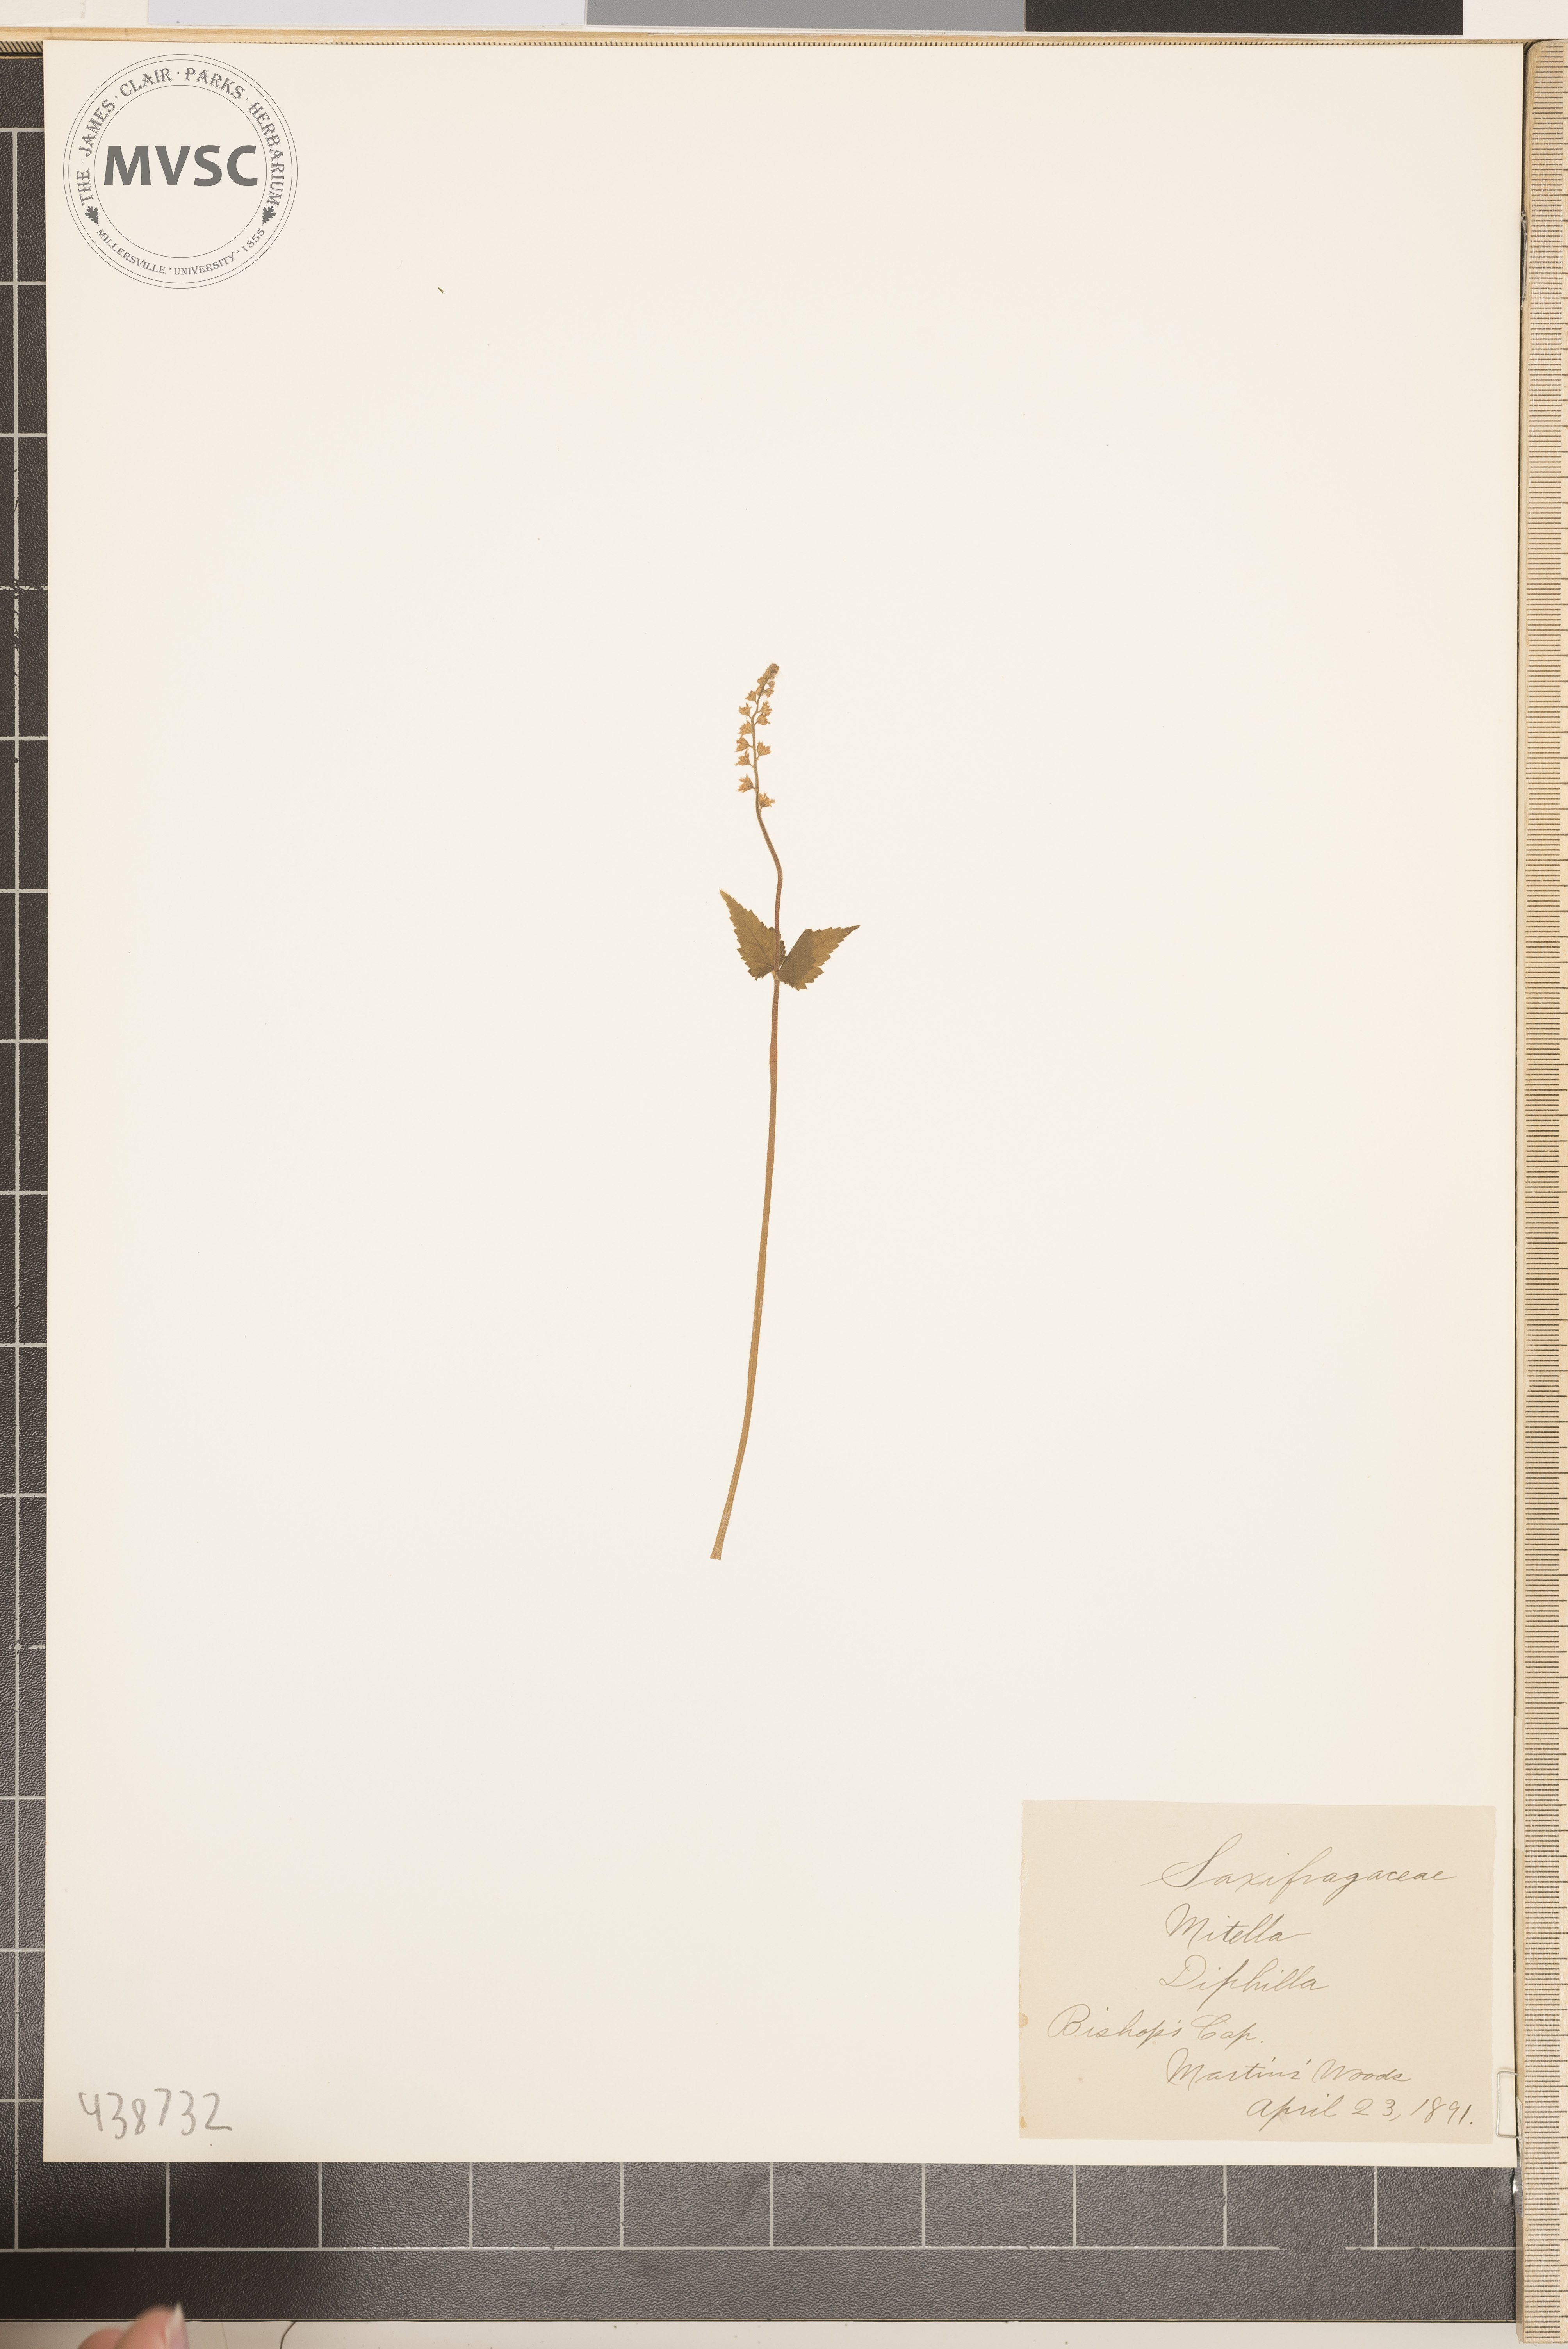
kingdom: Plantae
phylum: Tracheophyta
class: Magnoliopsida
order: Saxifragales
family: Saxifragaceae
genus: Mitella
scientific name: Mitella diphylla
